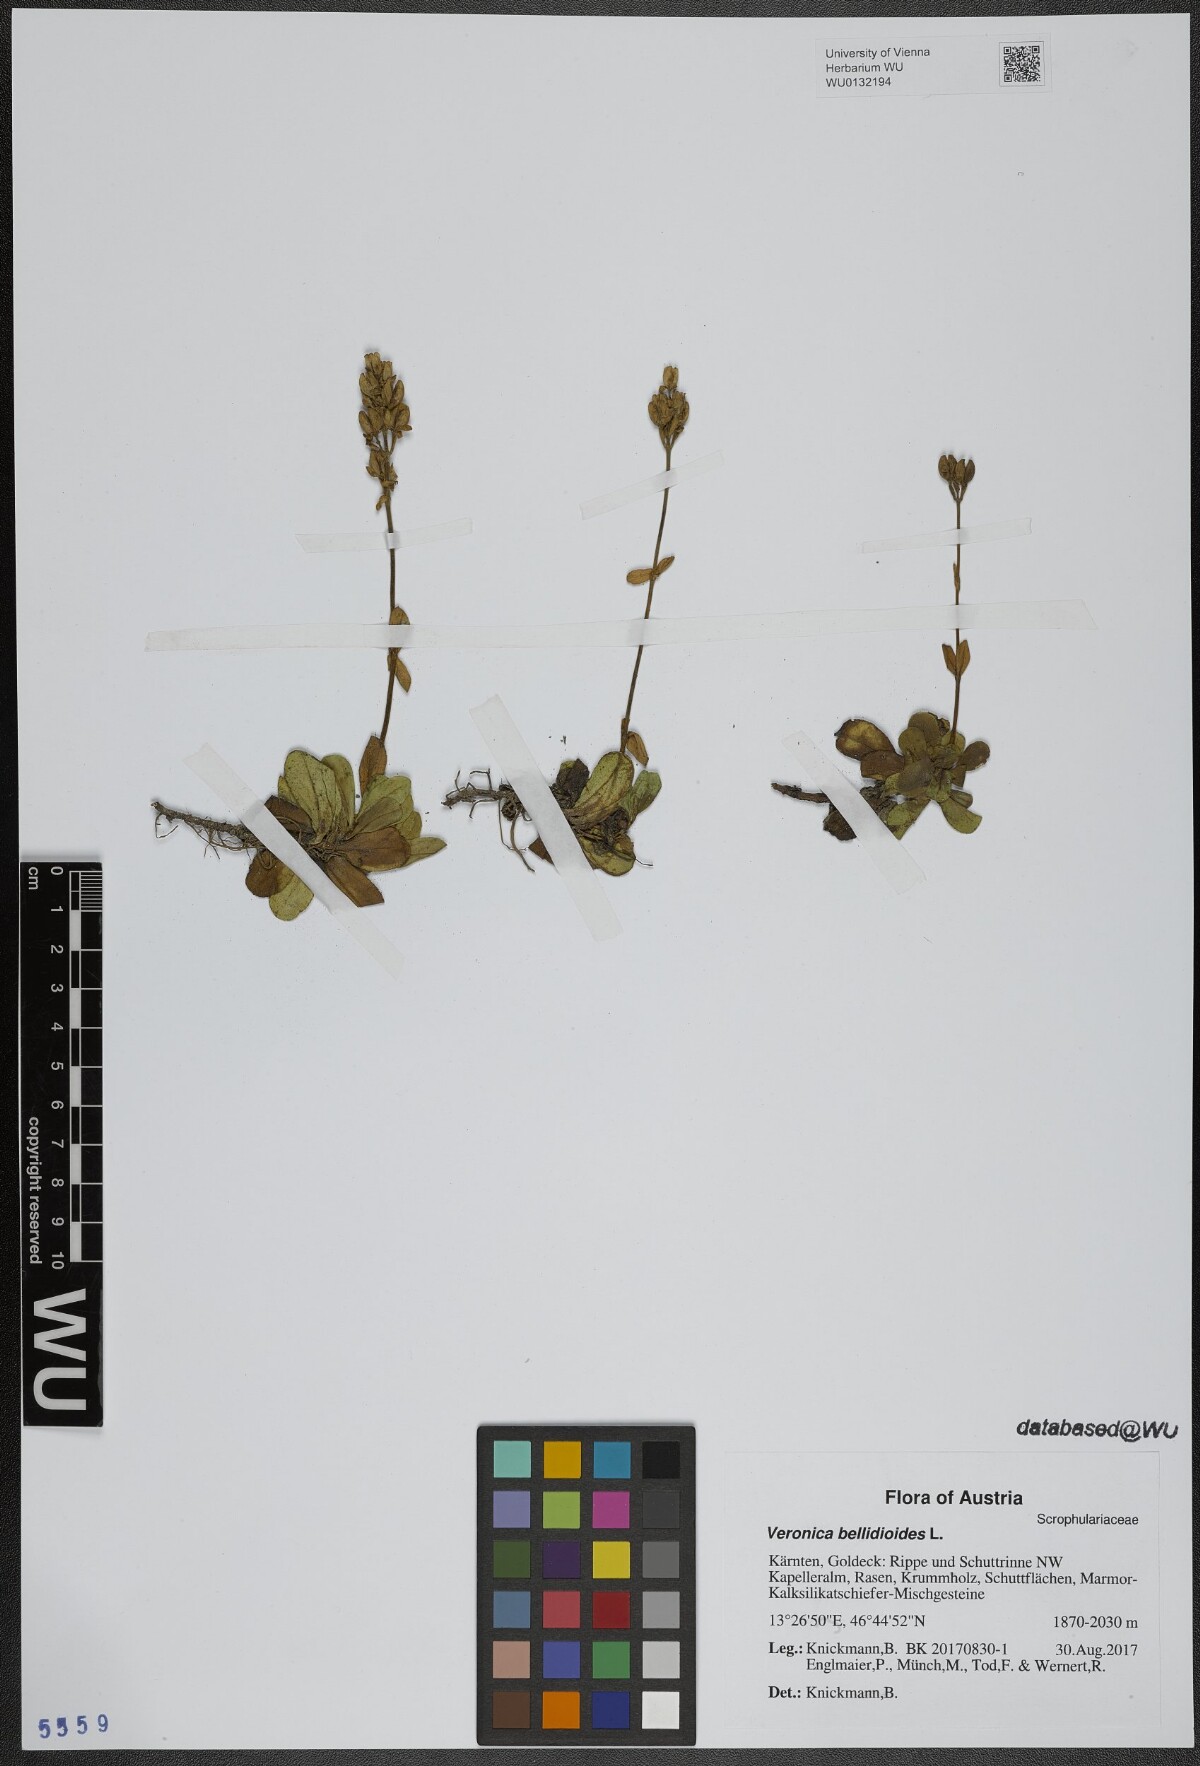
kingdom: Plantae
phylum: Tracheophyta
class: Magnoliopsida
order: Lamiales
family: Plantaginaceae
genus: Veronica
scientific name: Veronica bellidioides
